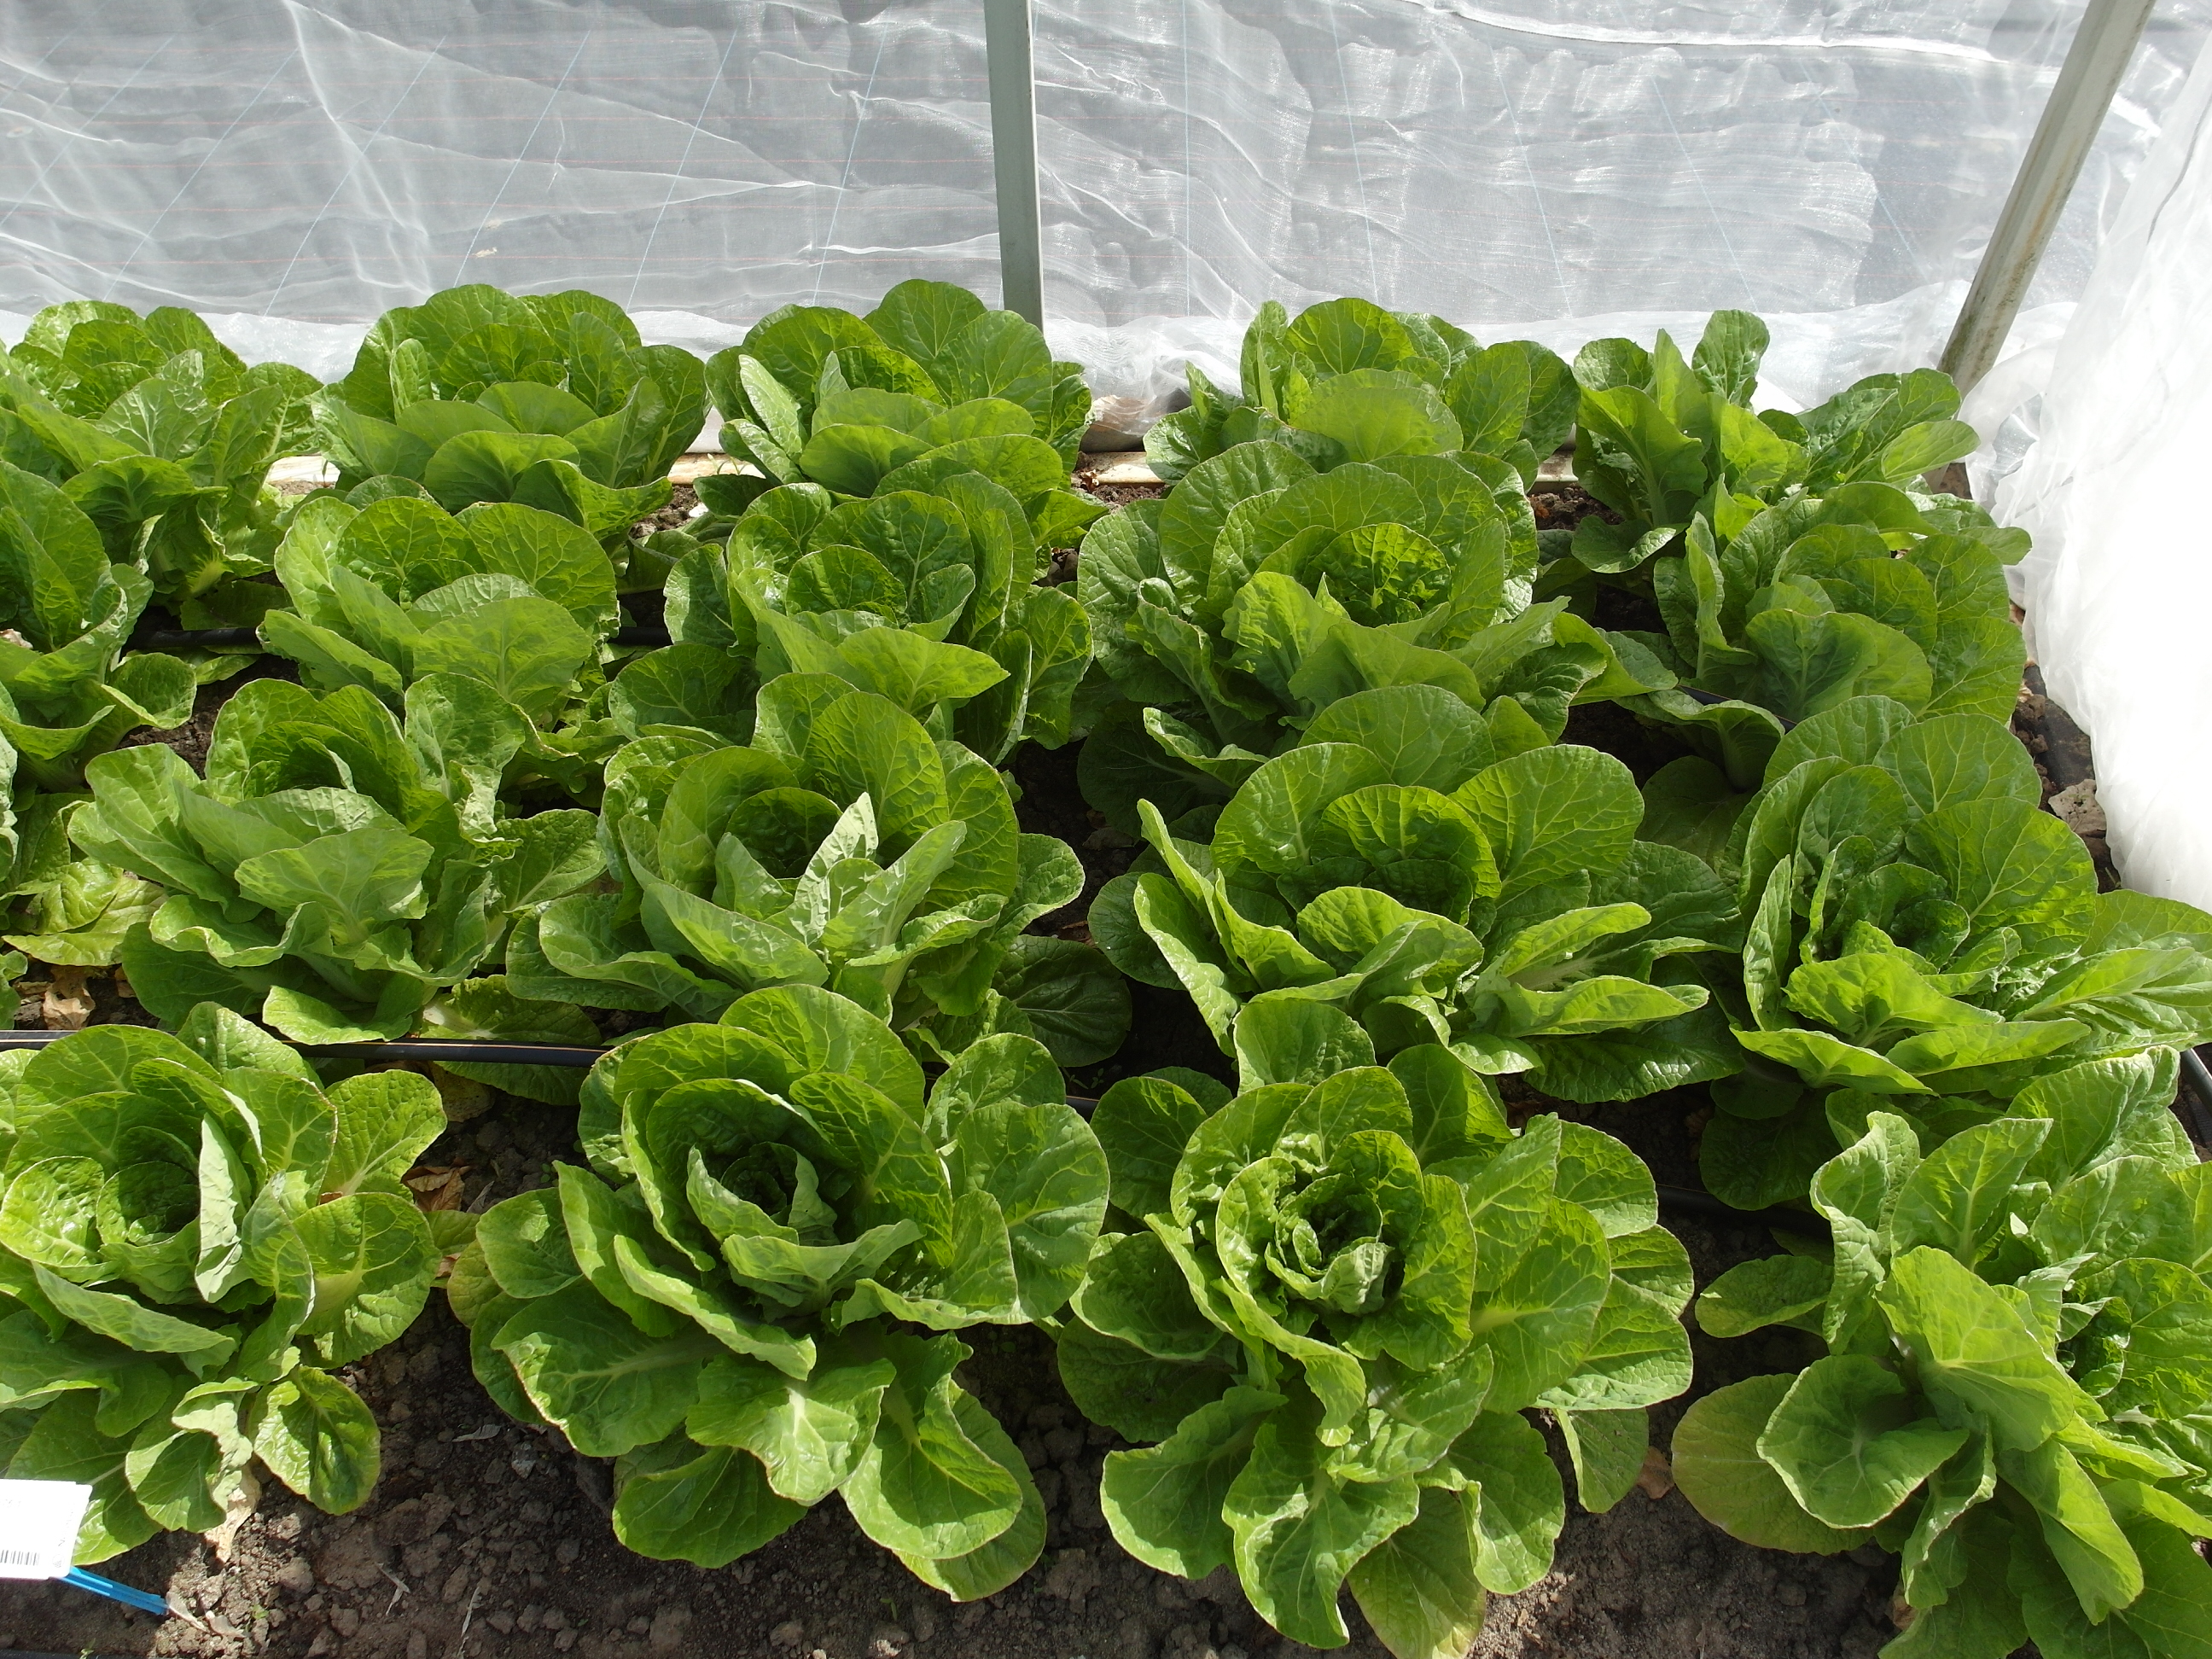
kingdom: Plantae
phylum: Tracheophyta
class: Magnoliopsida
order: Brassicales
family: Brassicaceae
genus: Brassica
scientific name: Brassica rapa
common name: Field mustard
